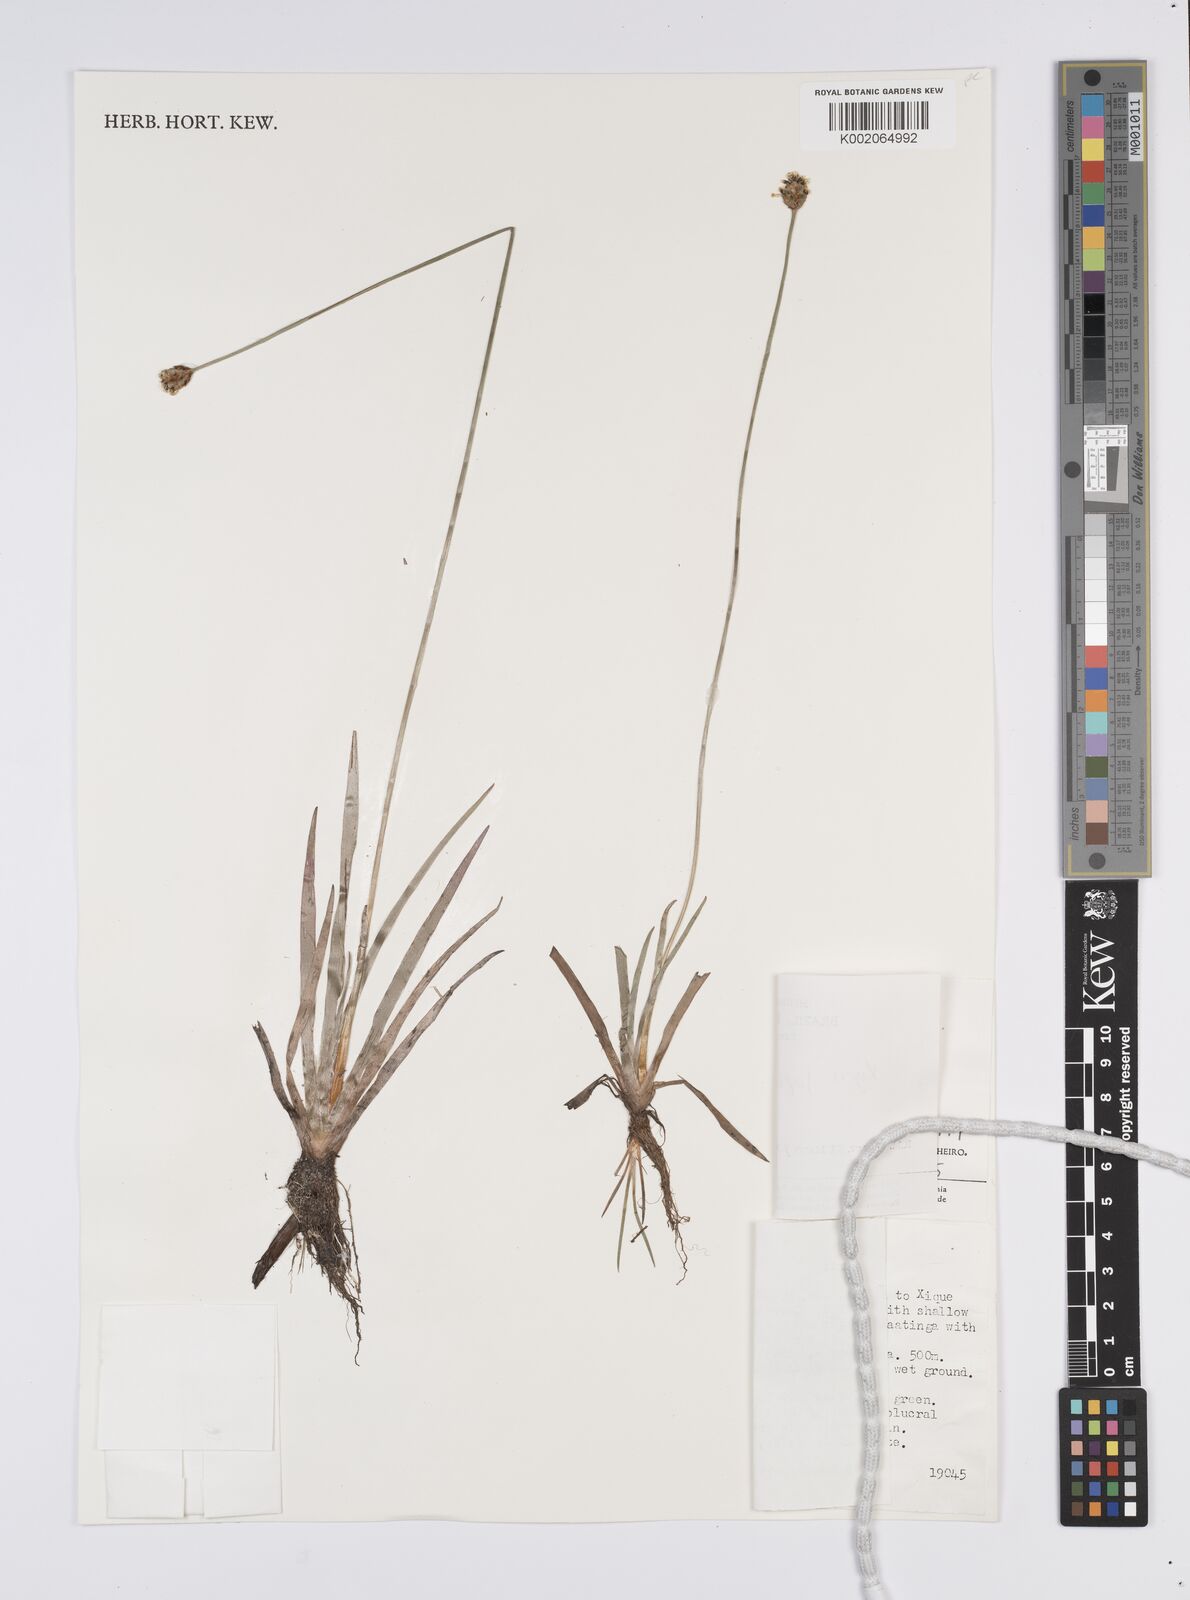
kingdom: Plantae
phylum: Tracheophyta
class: Liliopsida
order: Poales
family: Xyridaceae
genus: Xyris
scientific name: Xyris jupicai
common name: Richard's yelloweyed grass
